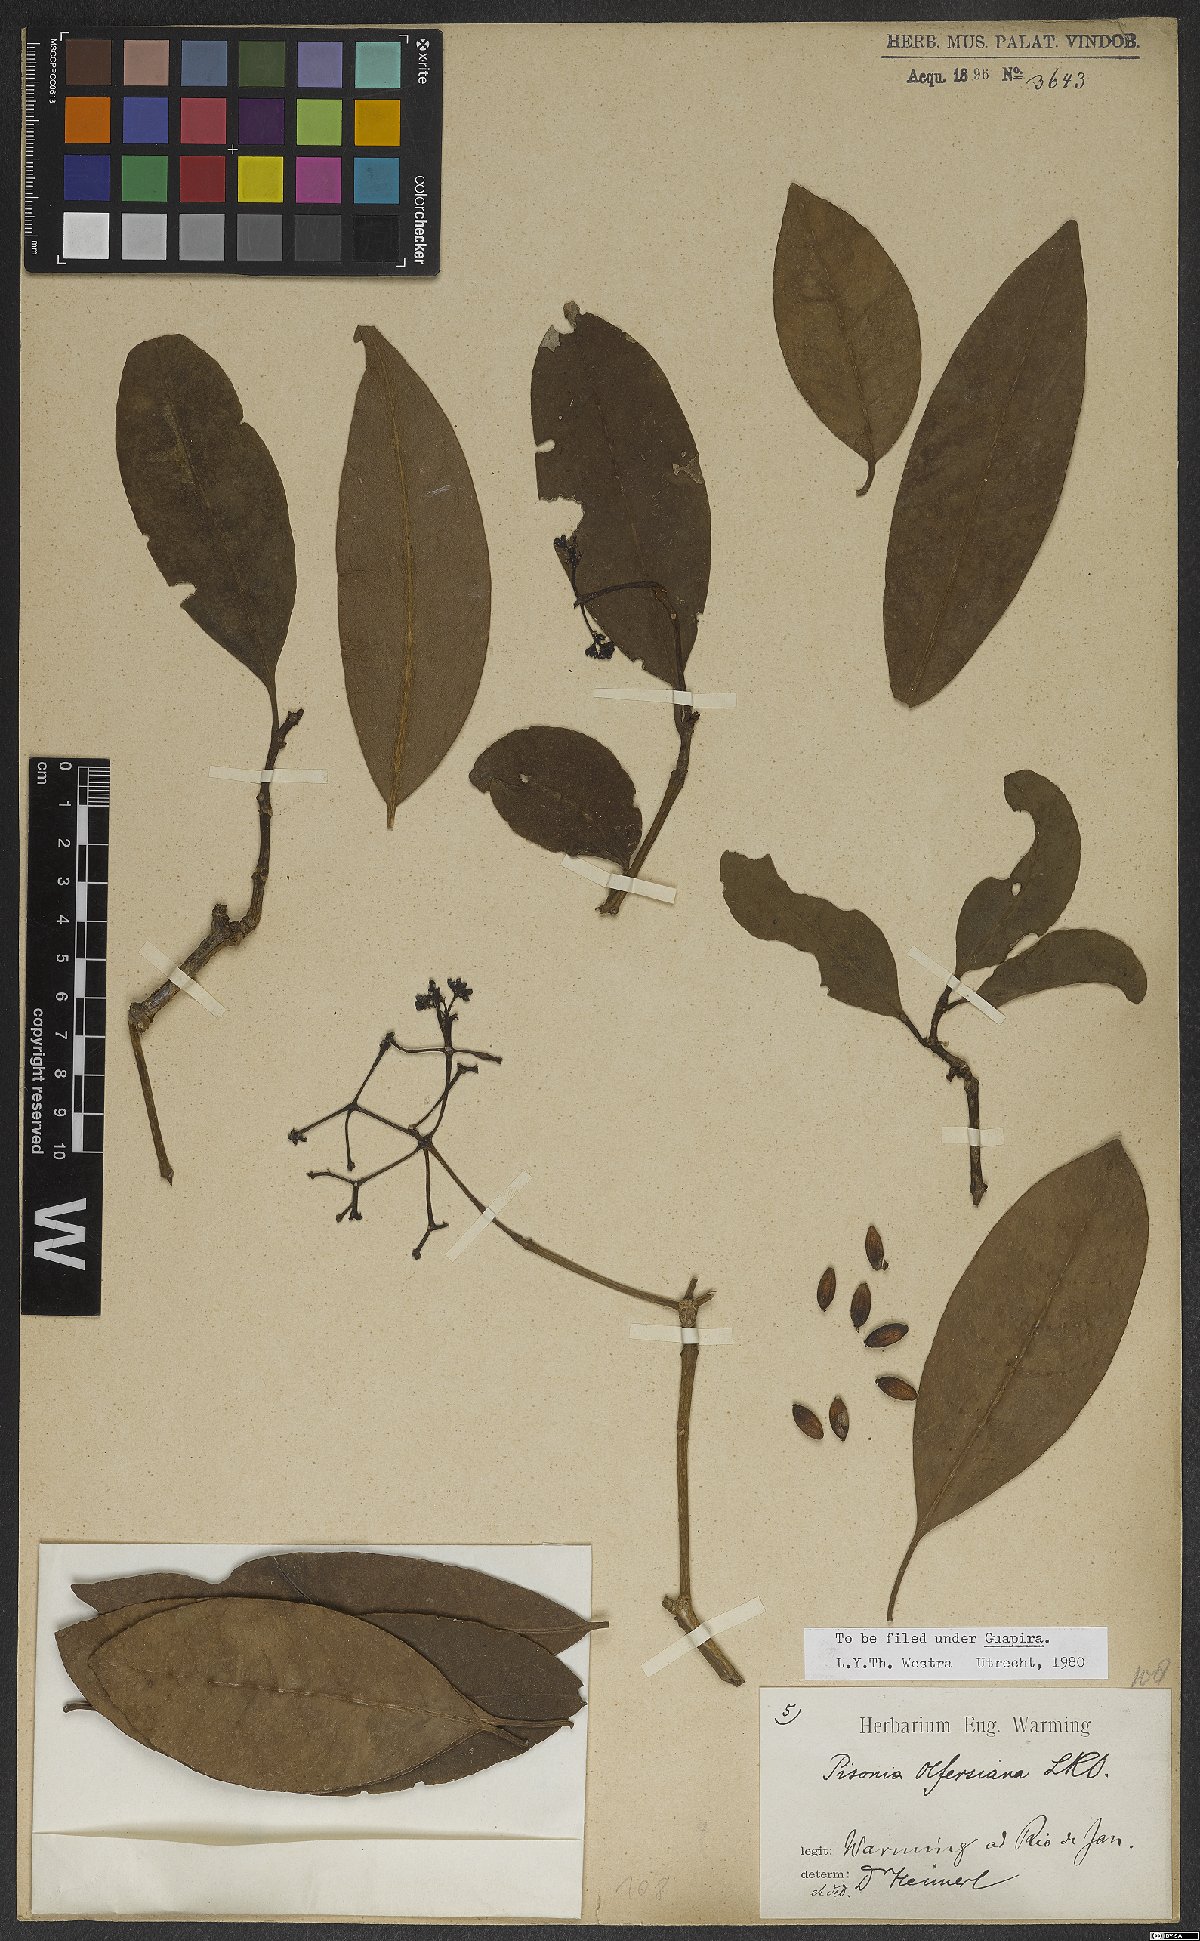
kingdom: Plantae
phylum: Tracheophyta
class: Magnoliopsida
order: Caryophyllales
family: Nyctaginaceae
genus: Guapira
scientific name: Guapira opposita
